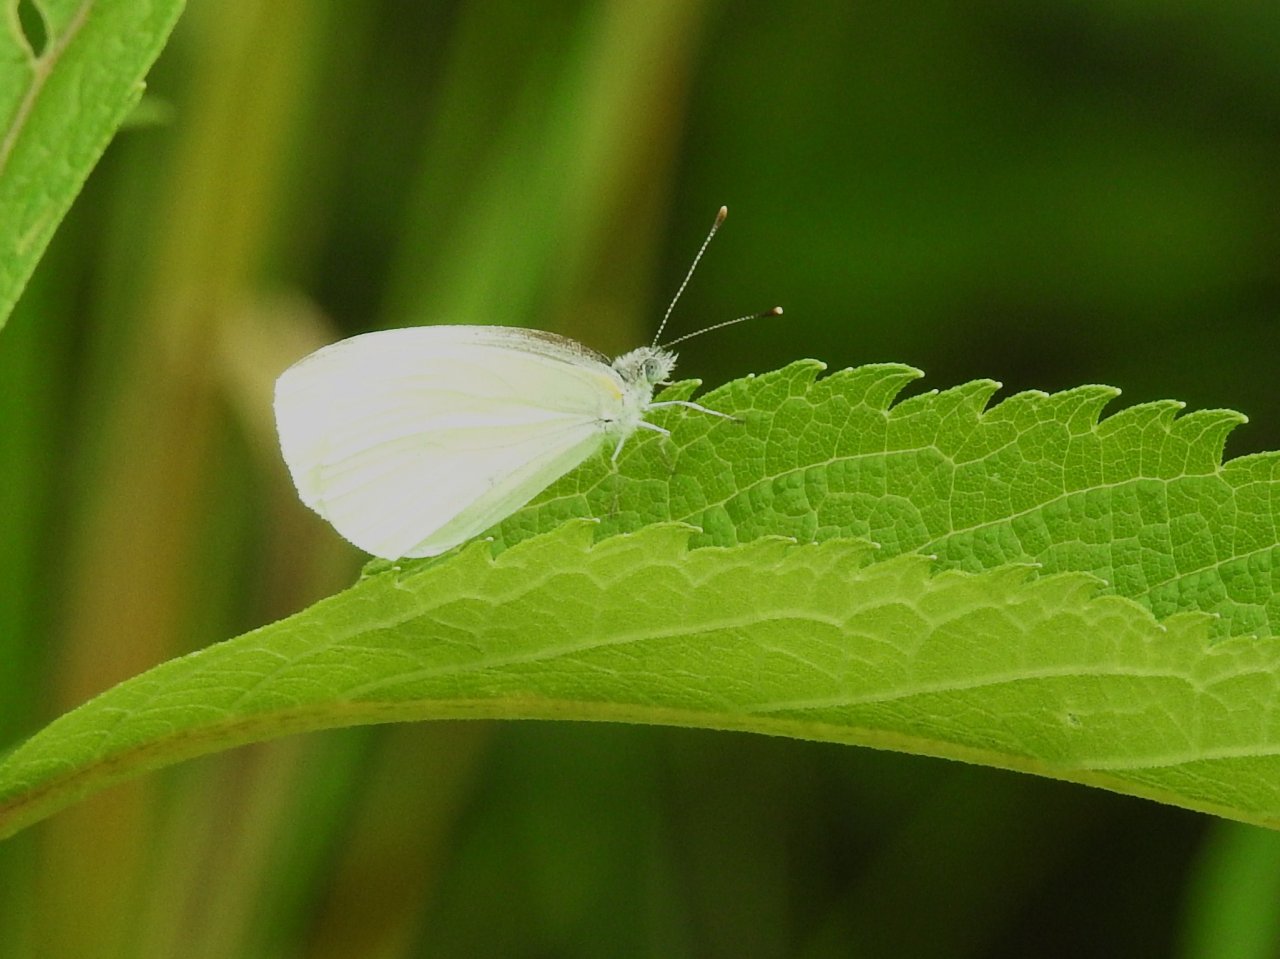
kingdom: Animalia
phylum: Arthropoda
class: Insecta
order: Lepidoptera
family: Pieridae
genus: Pieris
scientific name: Pieris oleracea
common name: Mustard White
